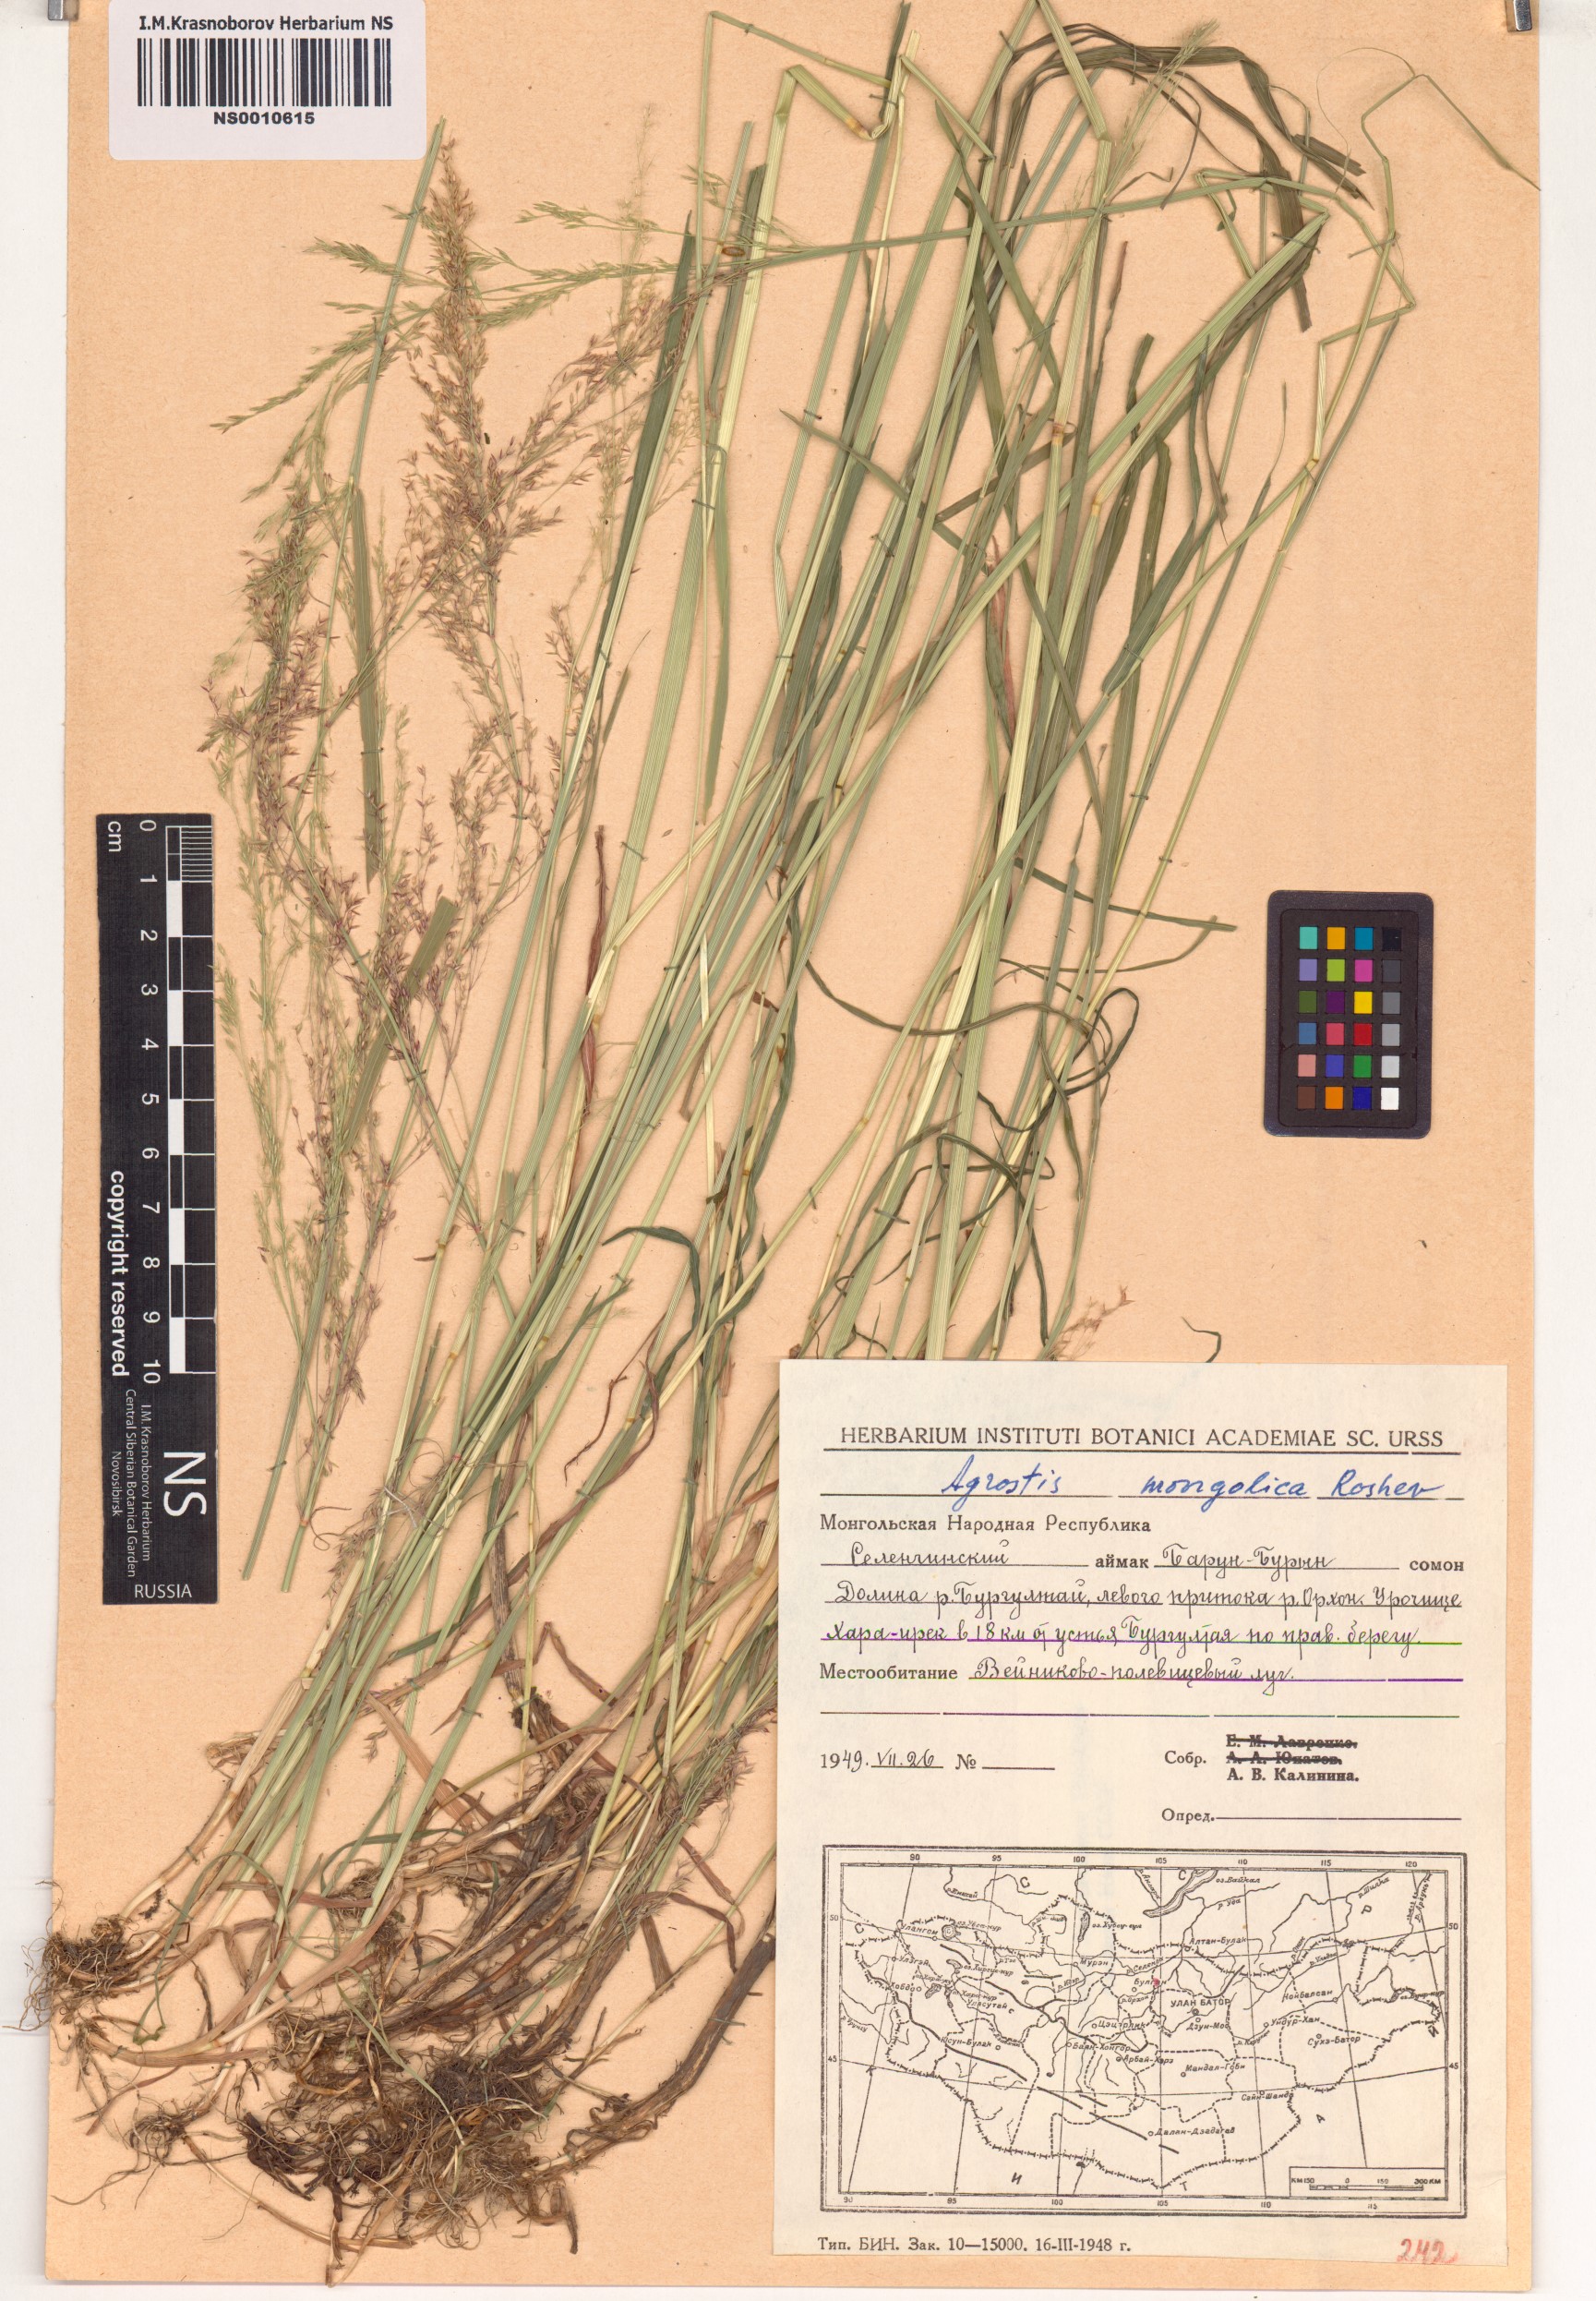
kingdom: Plantae
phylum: Tracheophyta
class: Liliopsida
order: Poales
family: Poaceae
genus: Agrostis
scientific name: Agrostis divaricatissima
